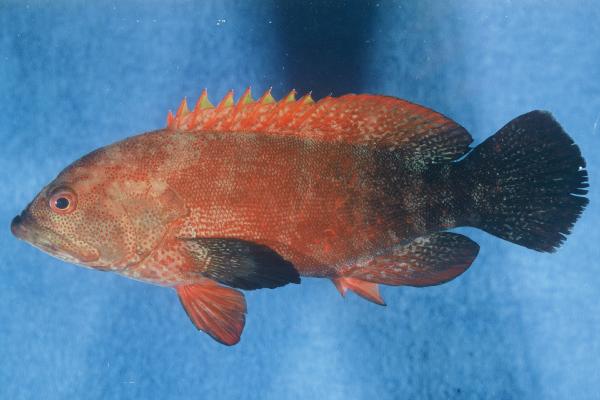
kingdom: Animalia
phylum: Chordata
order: Perciformes
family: Serranidae
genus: Cephalopholis
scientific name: Cephalopholis nigripinnis
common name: Duskyfin hind
